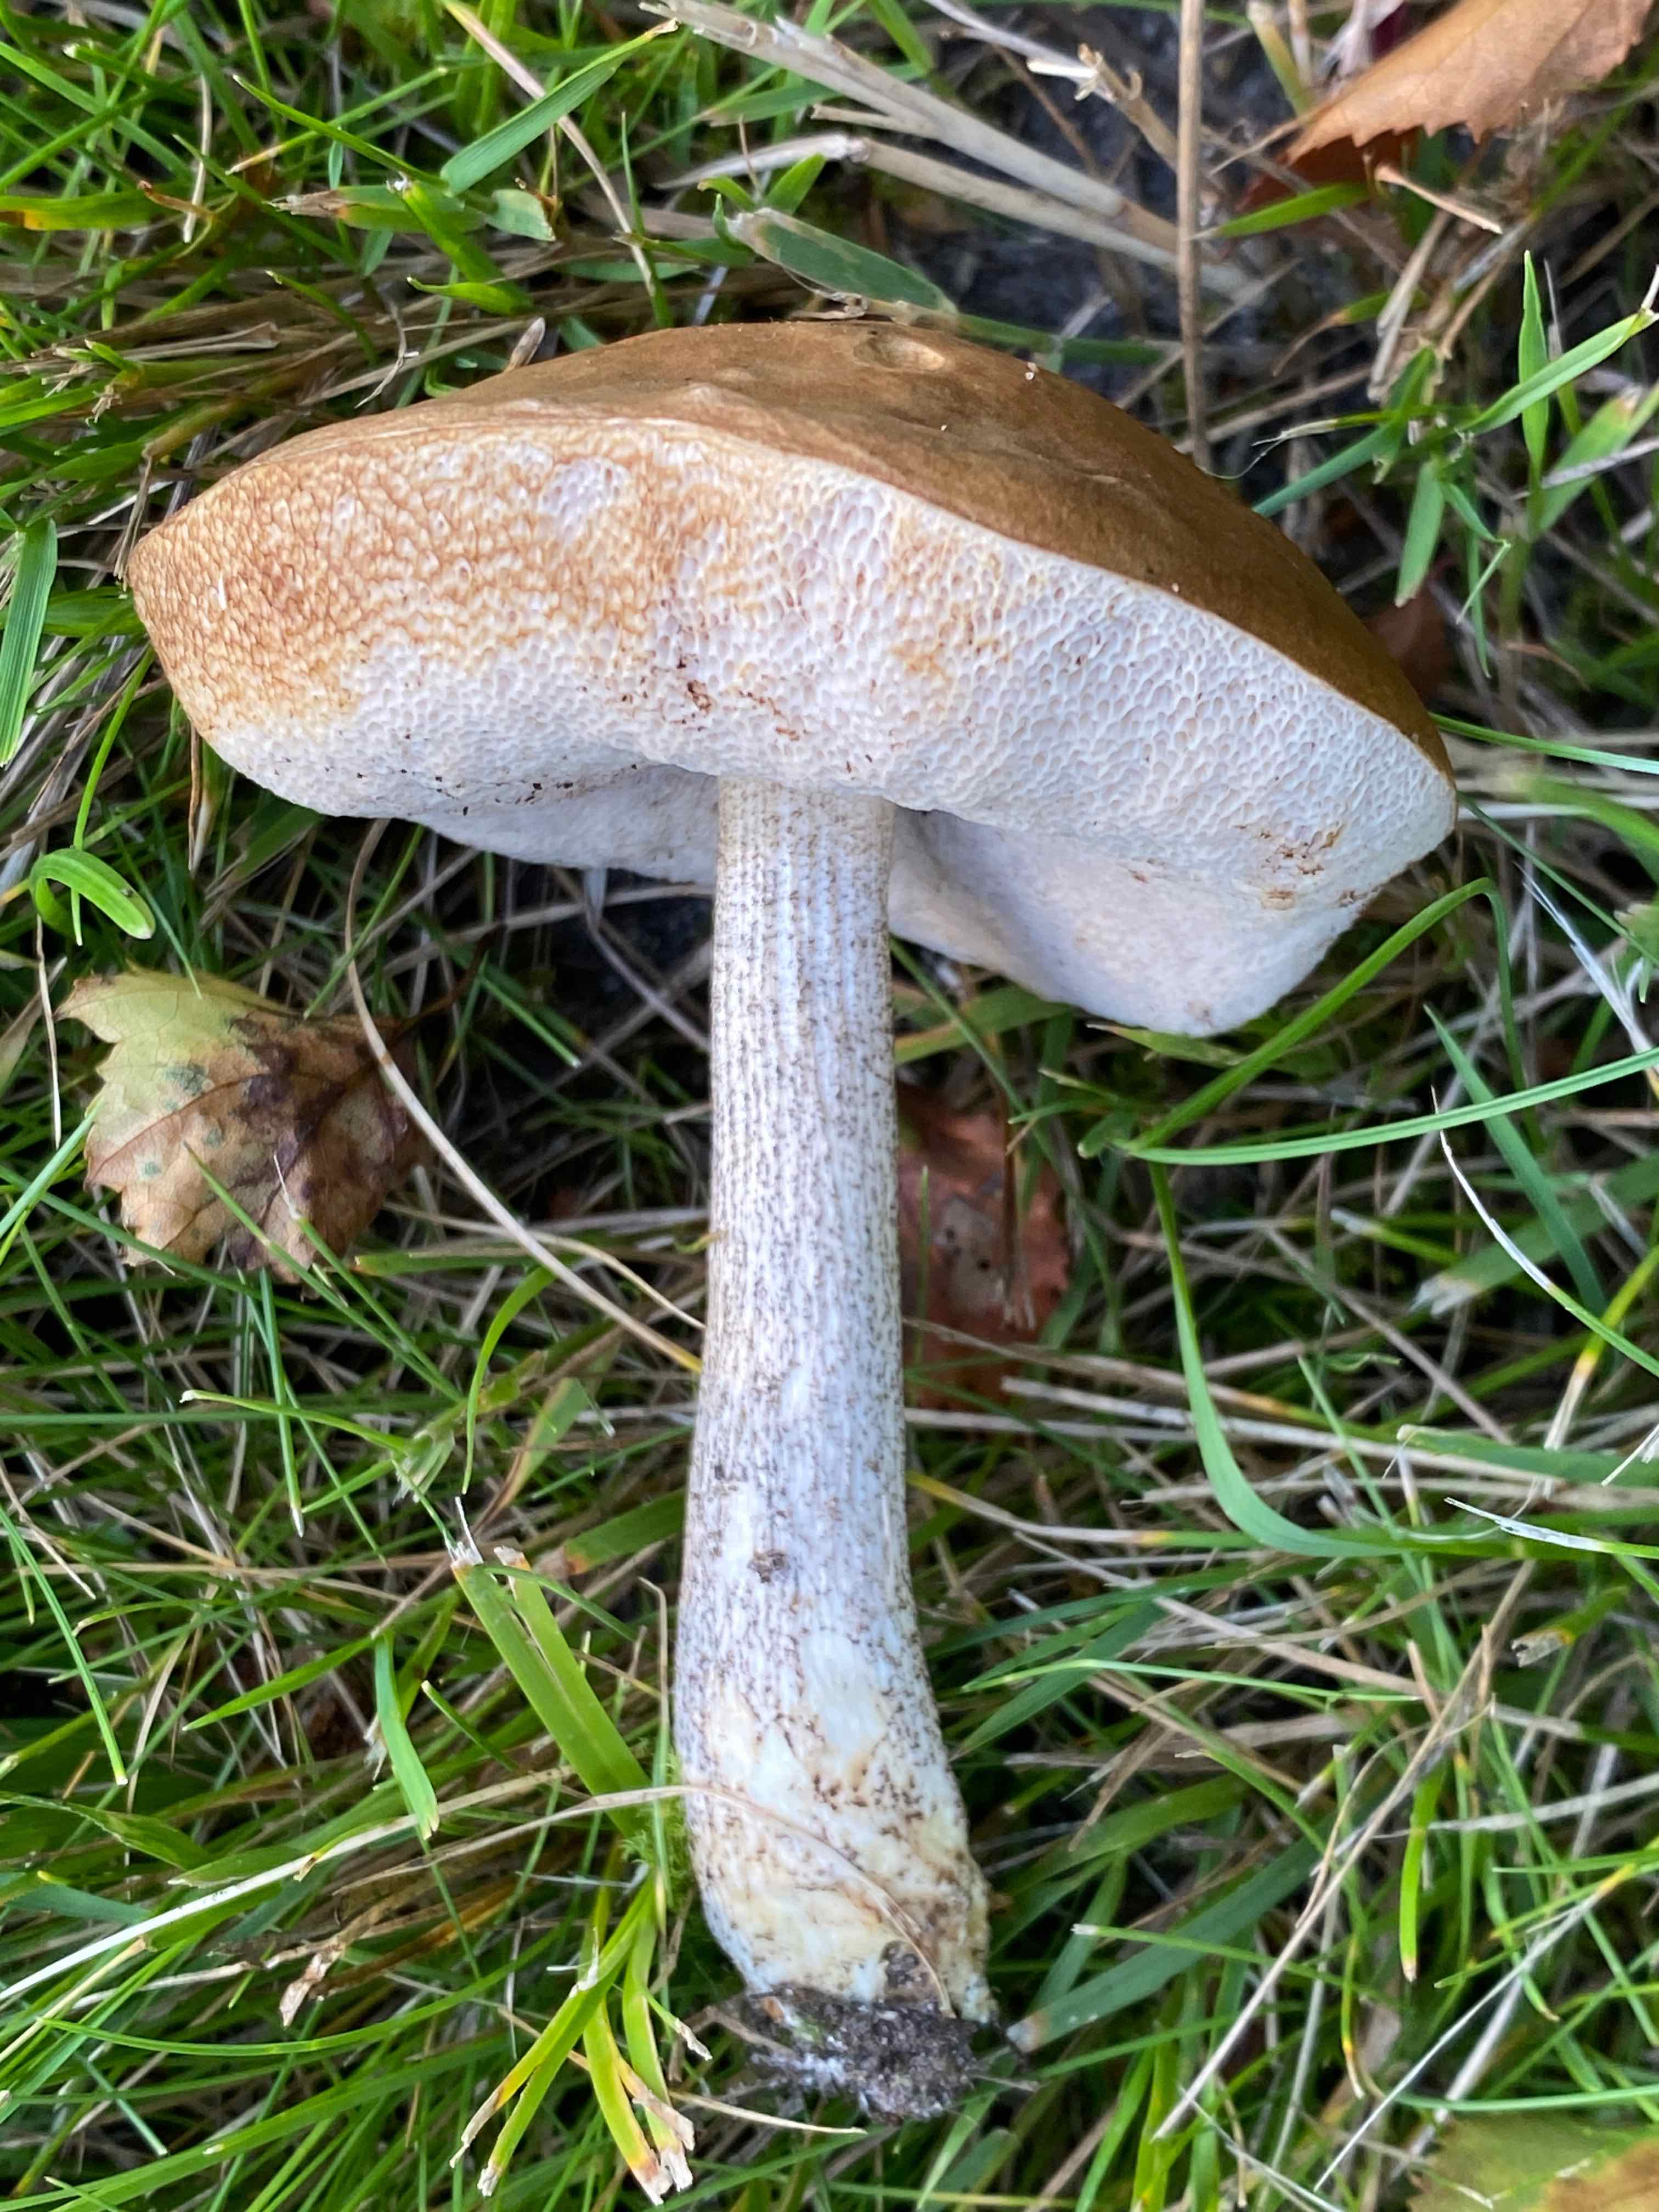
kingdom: Fungi
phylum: Basidiomycota
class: Agaricomycetes
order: Boletales
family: Boletaceae
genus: Leccinum
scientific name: Leccinum
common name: skælrørhat
